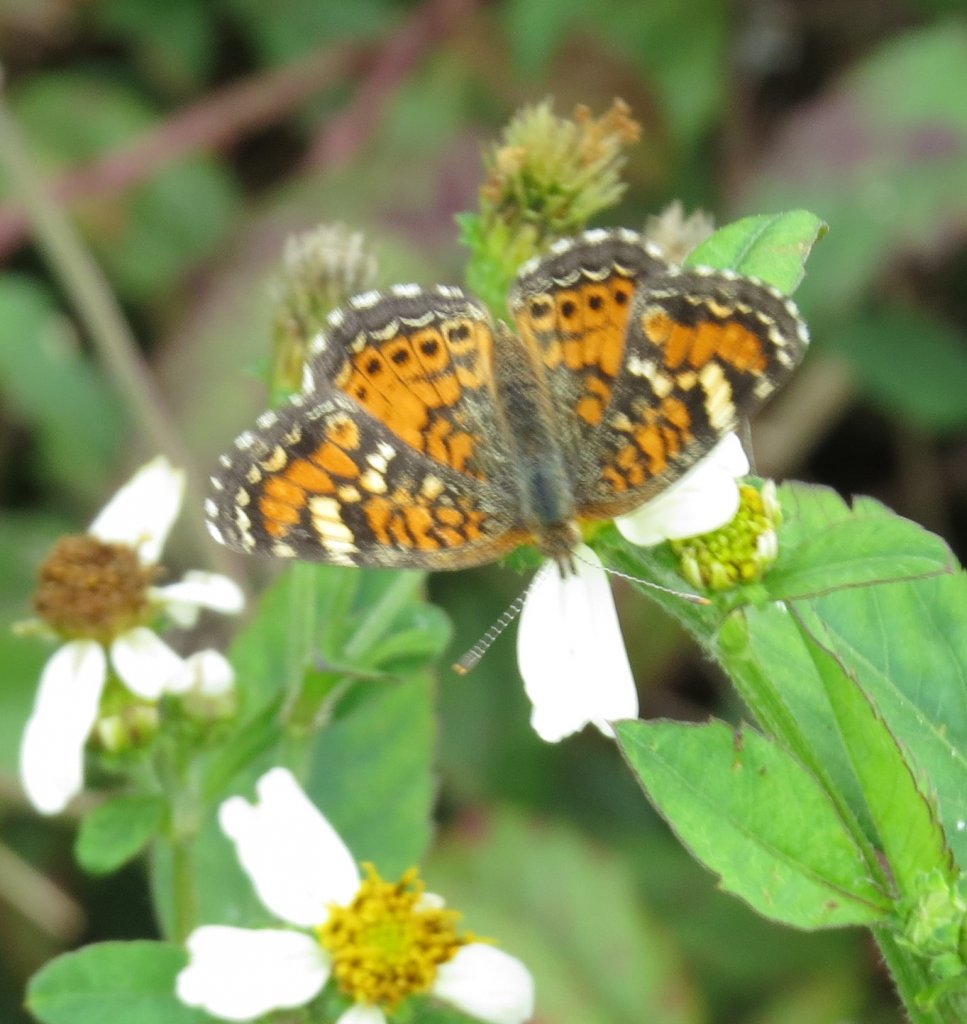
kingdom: Animalia
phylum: Arthropoda
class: Insecta
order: Lepidoptera
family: Nymphalidae
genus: Phyciodes
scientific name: Phyciodes phaon
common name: Phaon Crescent
